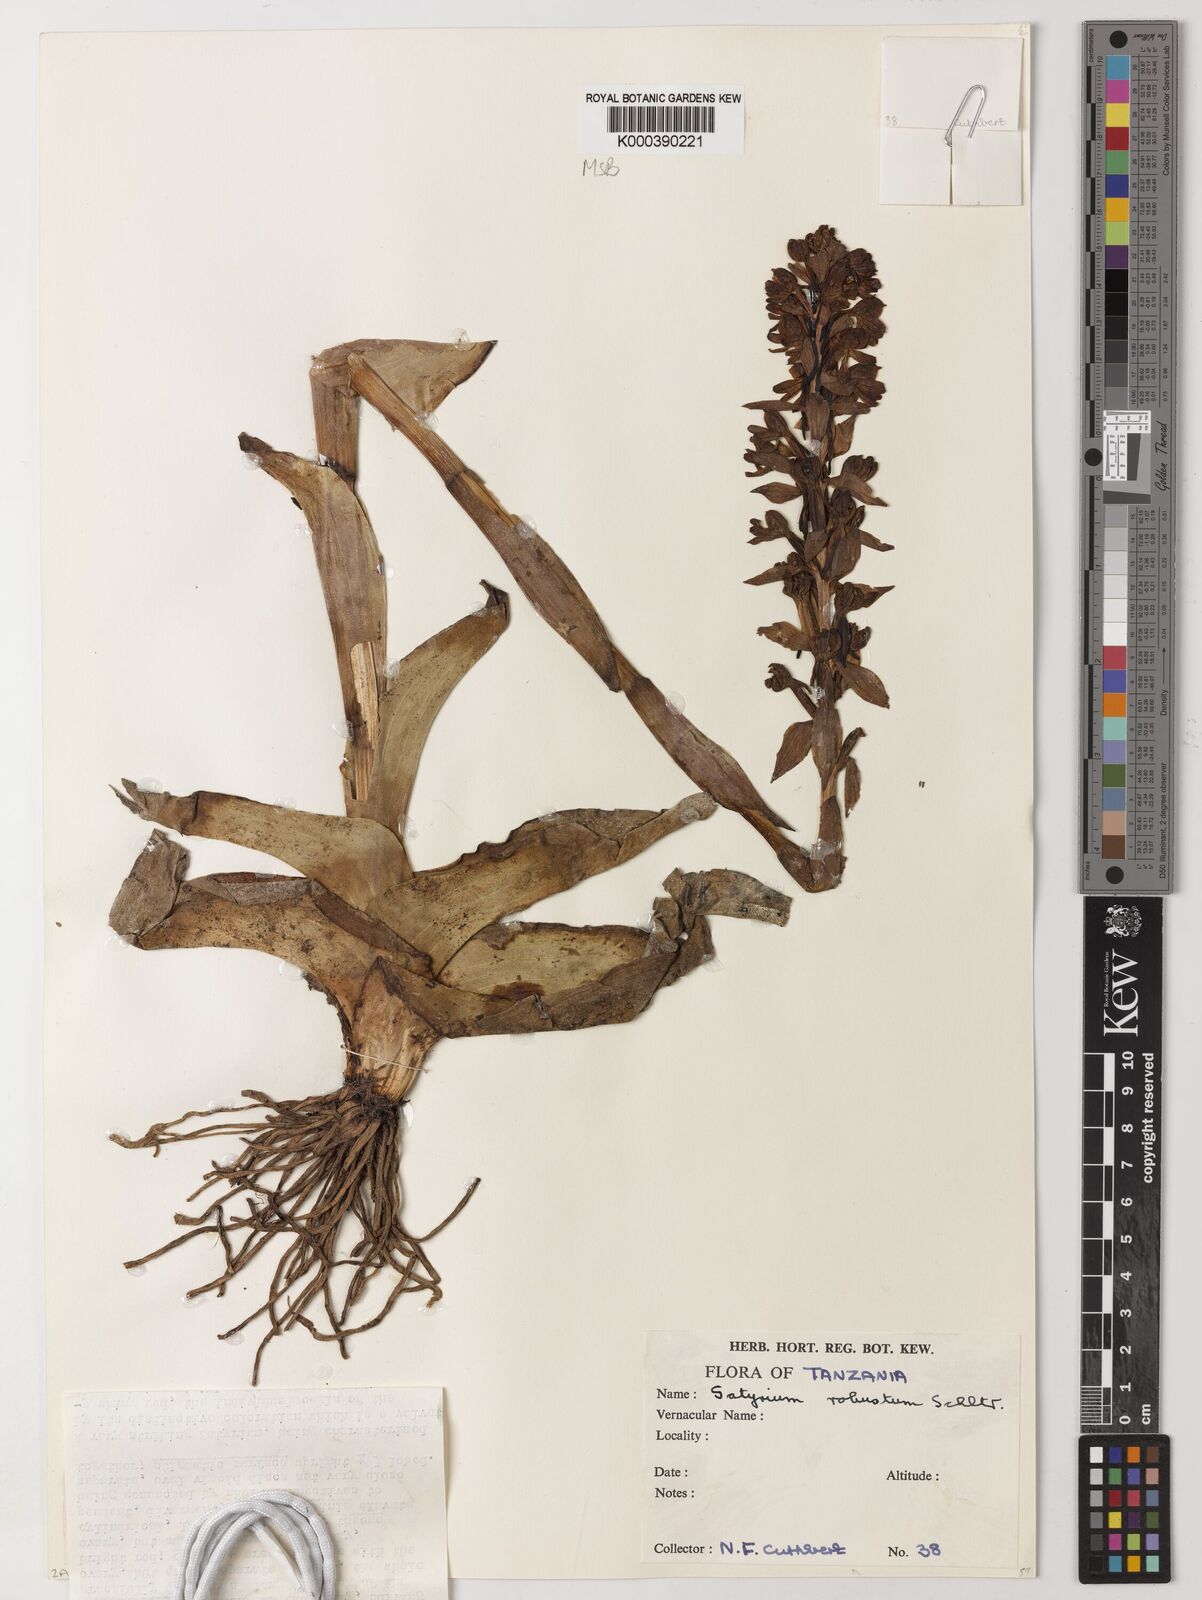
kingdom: Plantae
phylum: Tracheophyta
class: Liliopsida
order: Asparagales
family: Orchidaceae
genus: Satyrium
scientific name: Satyrium robustum
